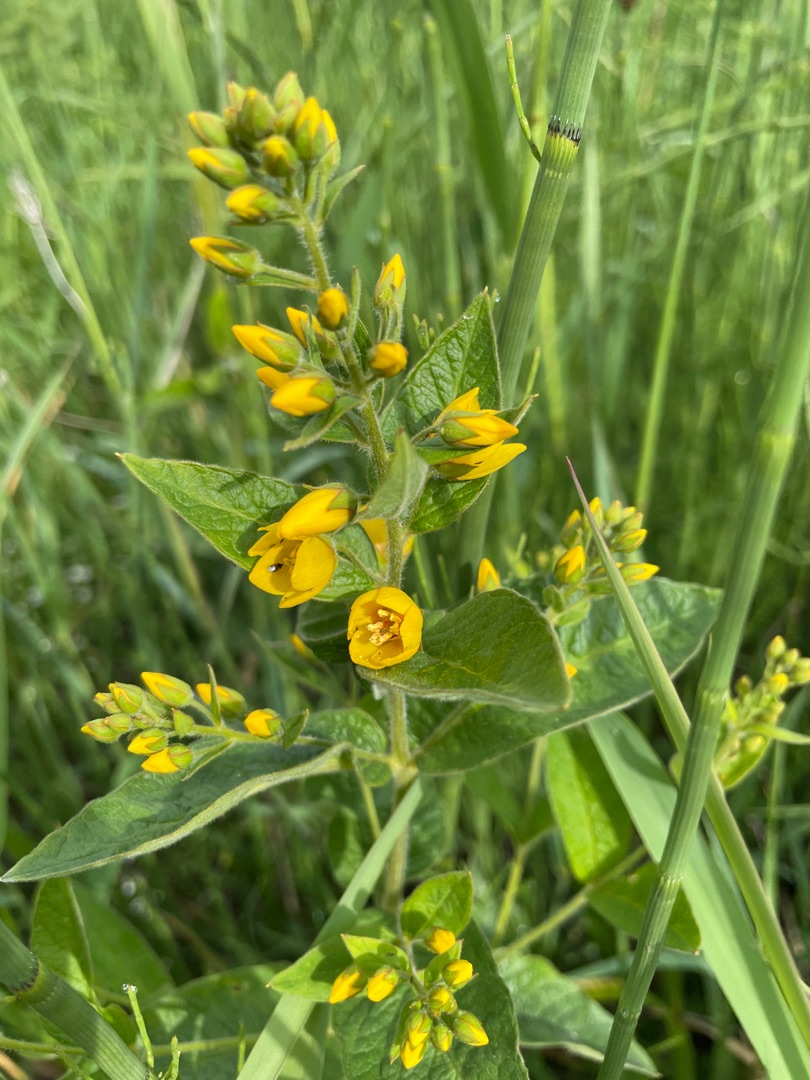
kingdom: Plantae
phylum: Tracheophyta
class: Magnoliopsida
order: Ericales
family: Primulaceae
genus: Lysimachia
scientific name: Lysimachia vulgaris
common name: Almindelig fredløs
